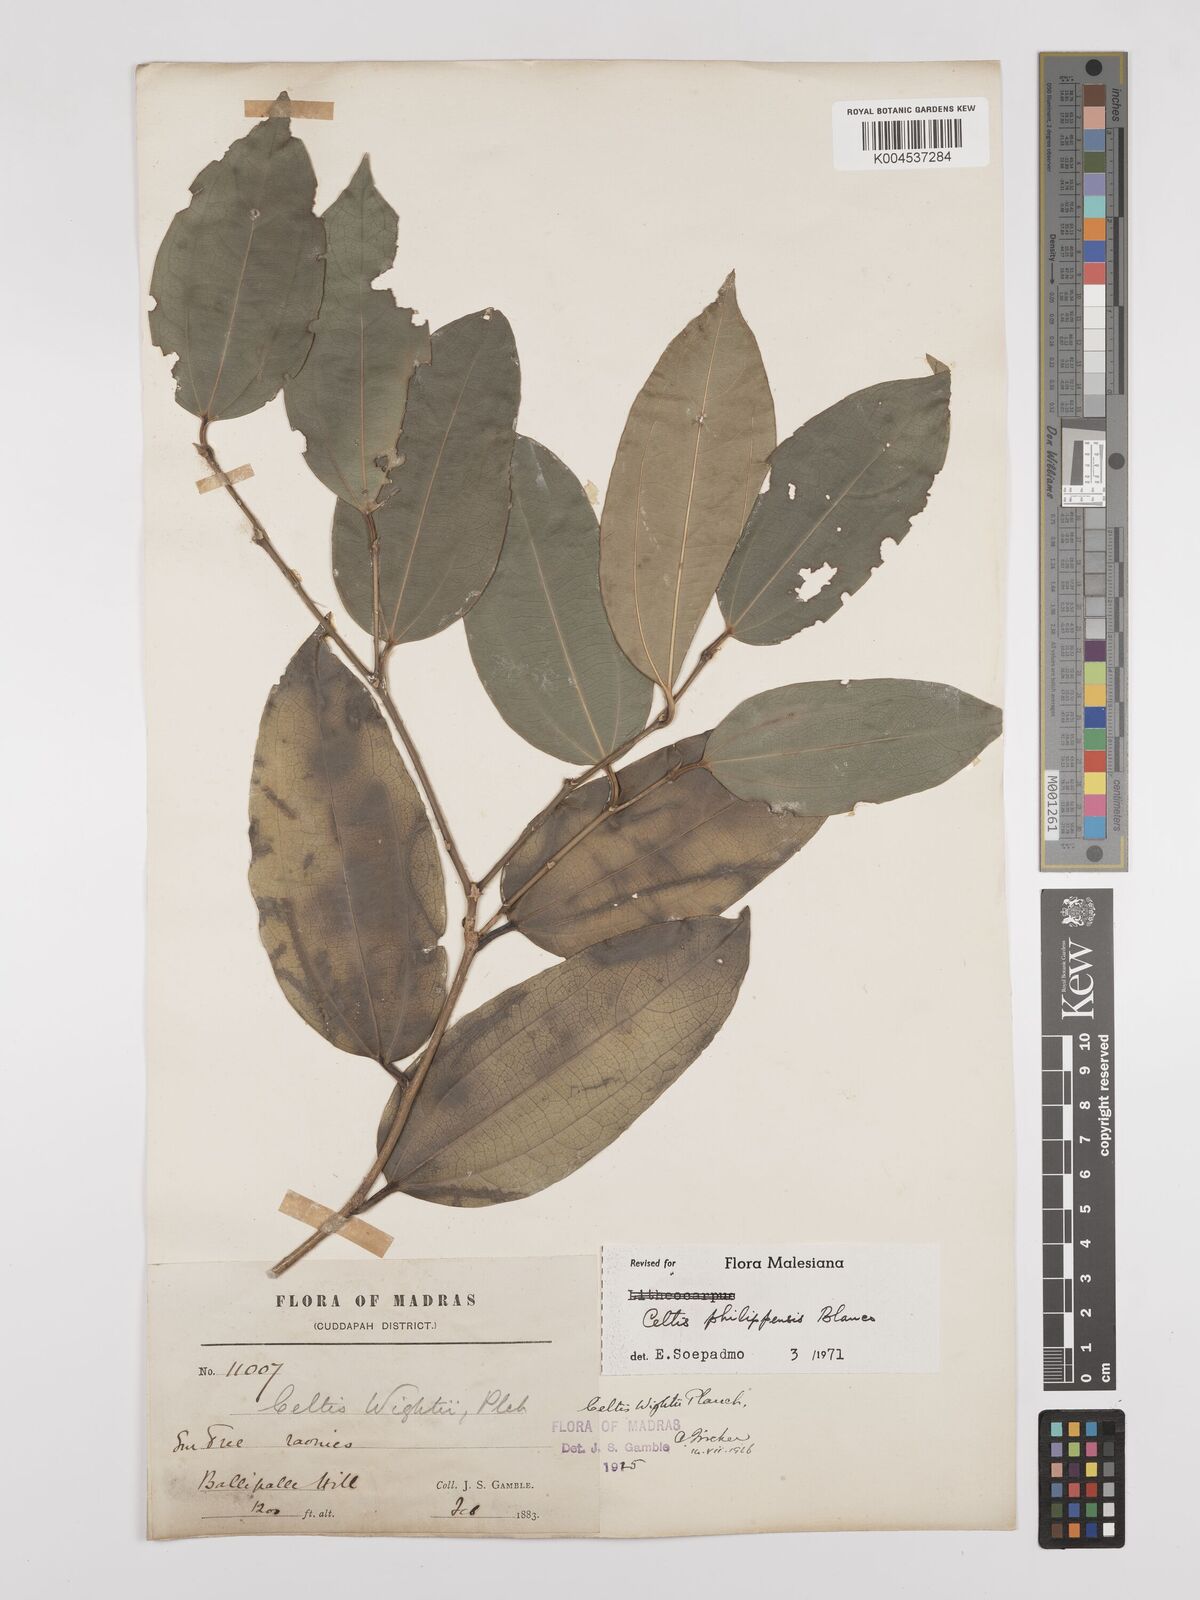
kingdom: Plantae
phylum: Tracheophyta
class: Magnoliopsida
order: Rosales
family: Cannabaceae
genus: Celtis
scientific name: Celtis philippensis
